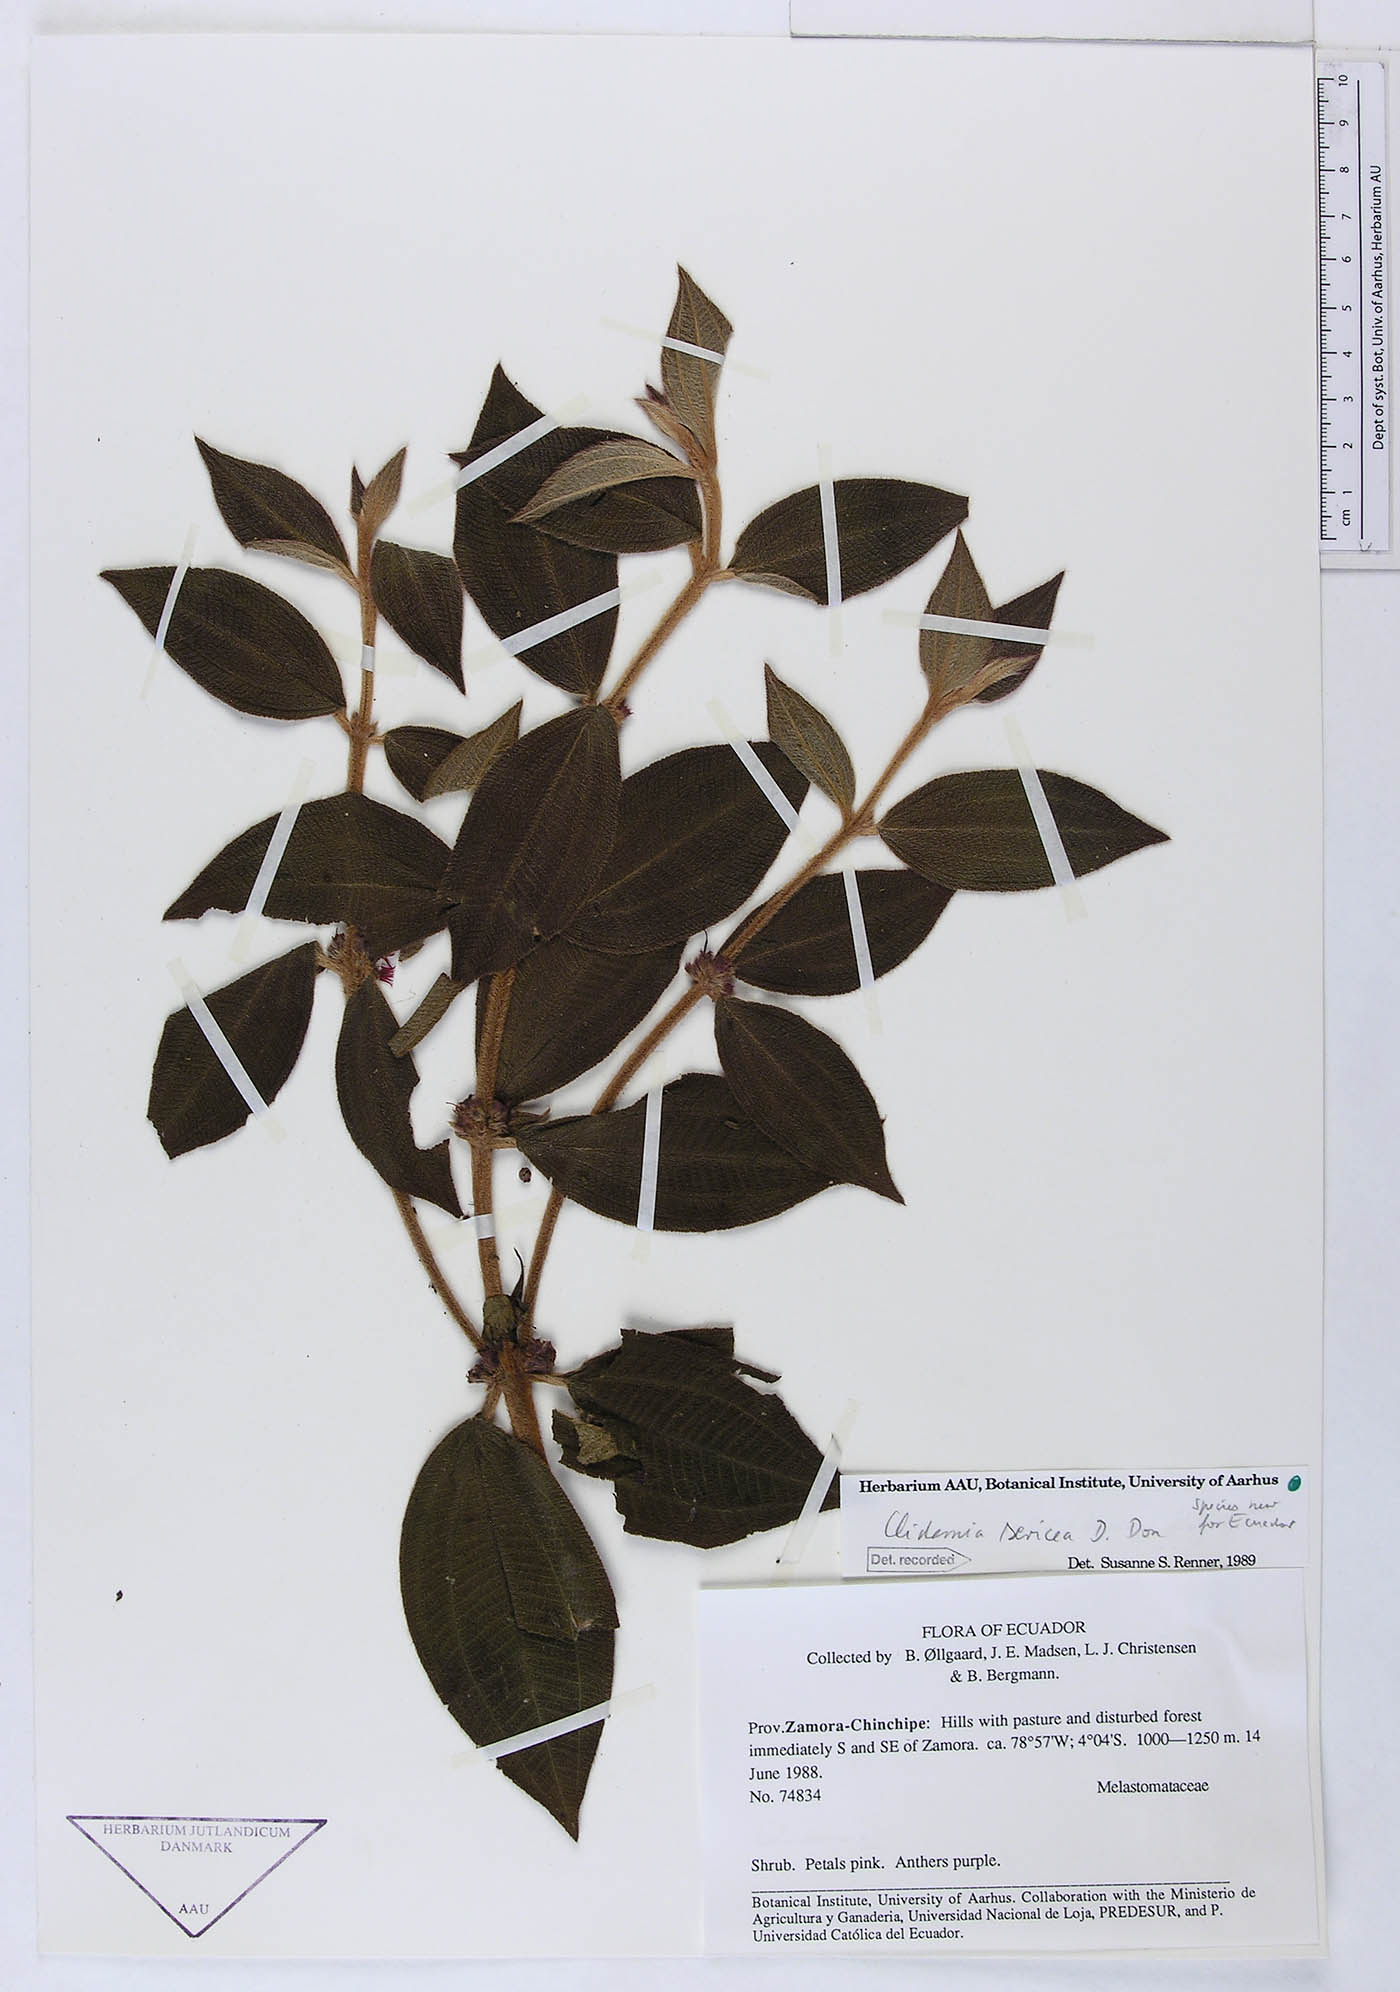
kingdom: Plantae
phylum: Tracheophyta
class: Magnoliopsida
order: Myrtales
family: Melastomataceae
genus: Miconia
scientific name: Miconia sericea
